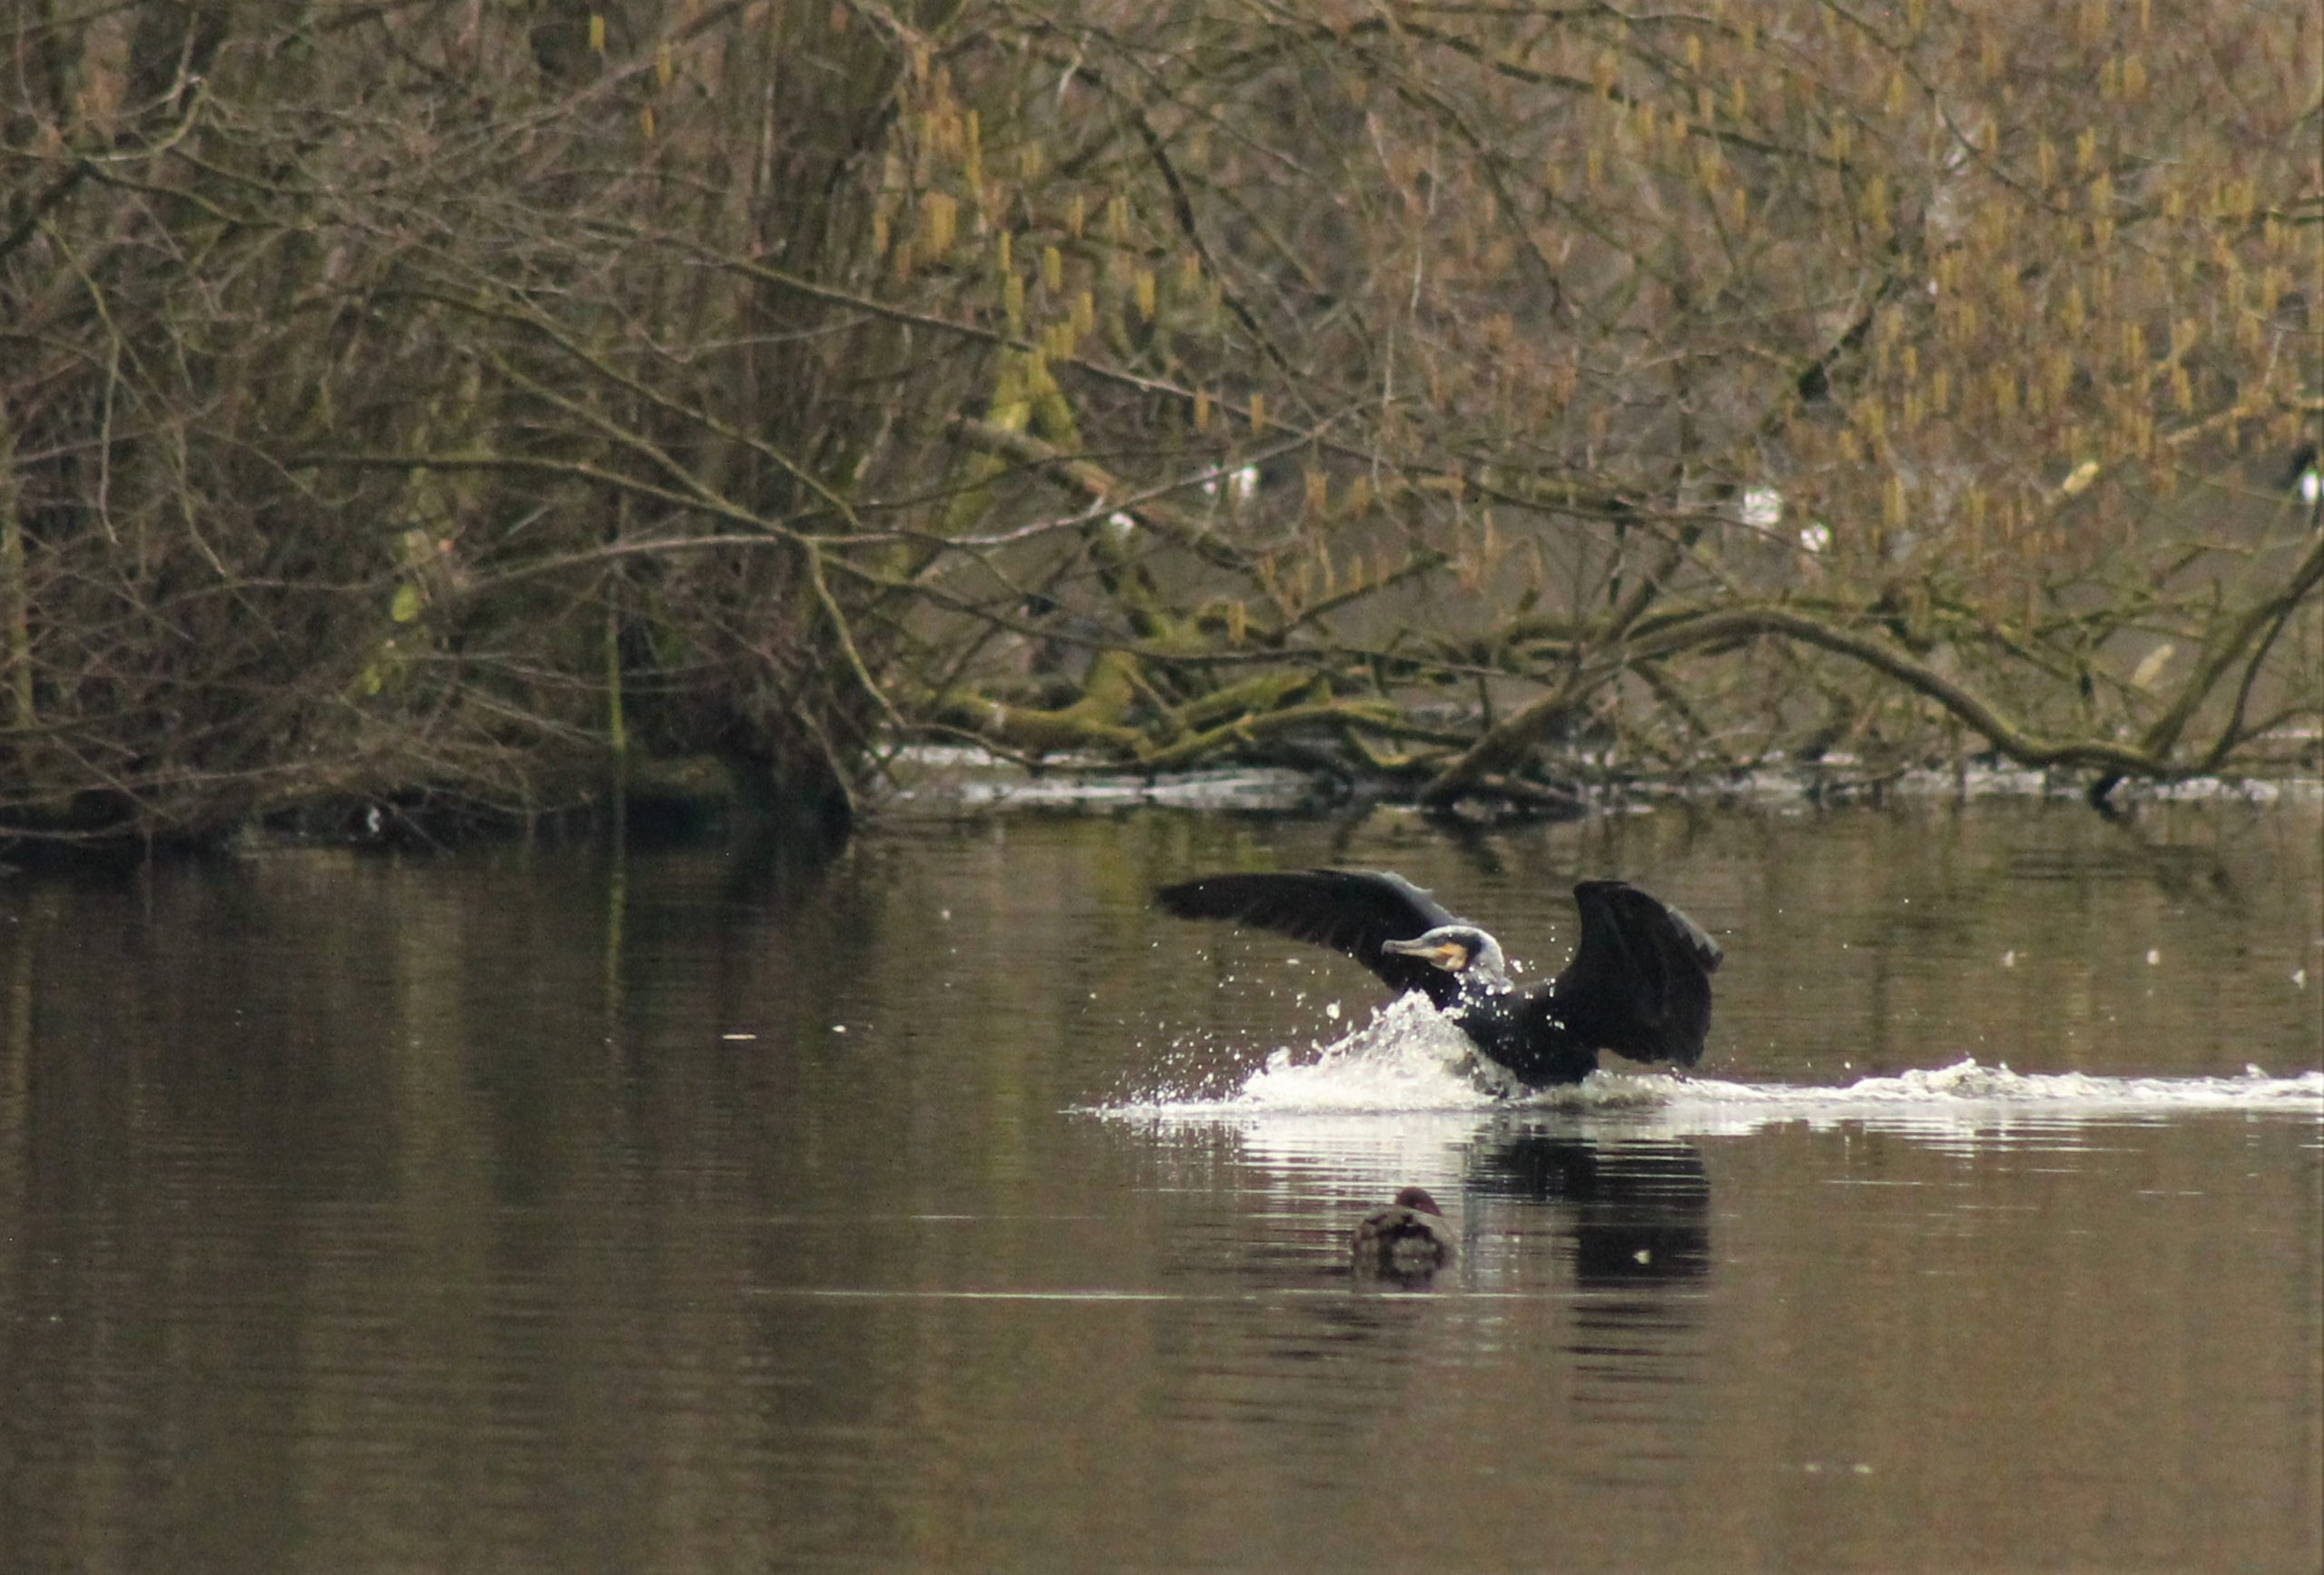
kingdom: Animalia
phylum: Chordata
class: Aves
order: Suliformes
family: Phalacrocoracidae
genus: Phalacrocorax
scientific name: Phalacrocorax carbo
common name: Mellemskarv
